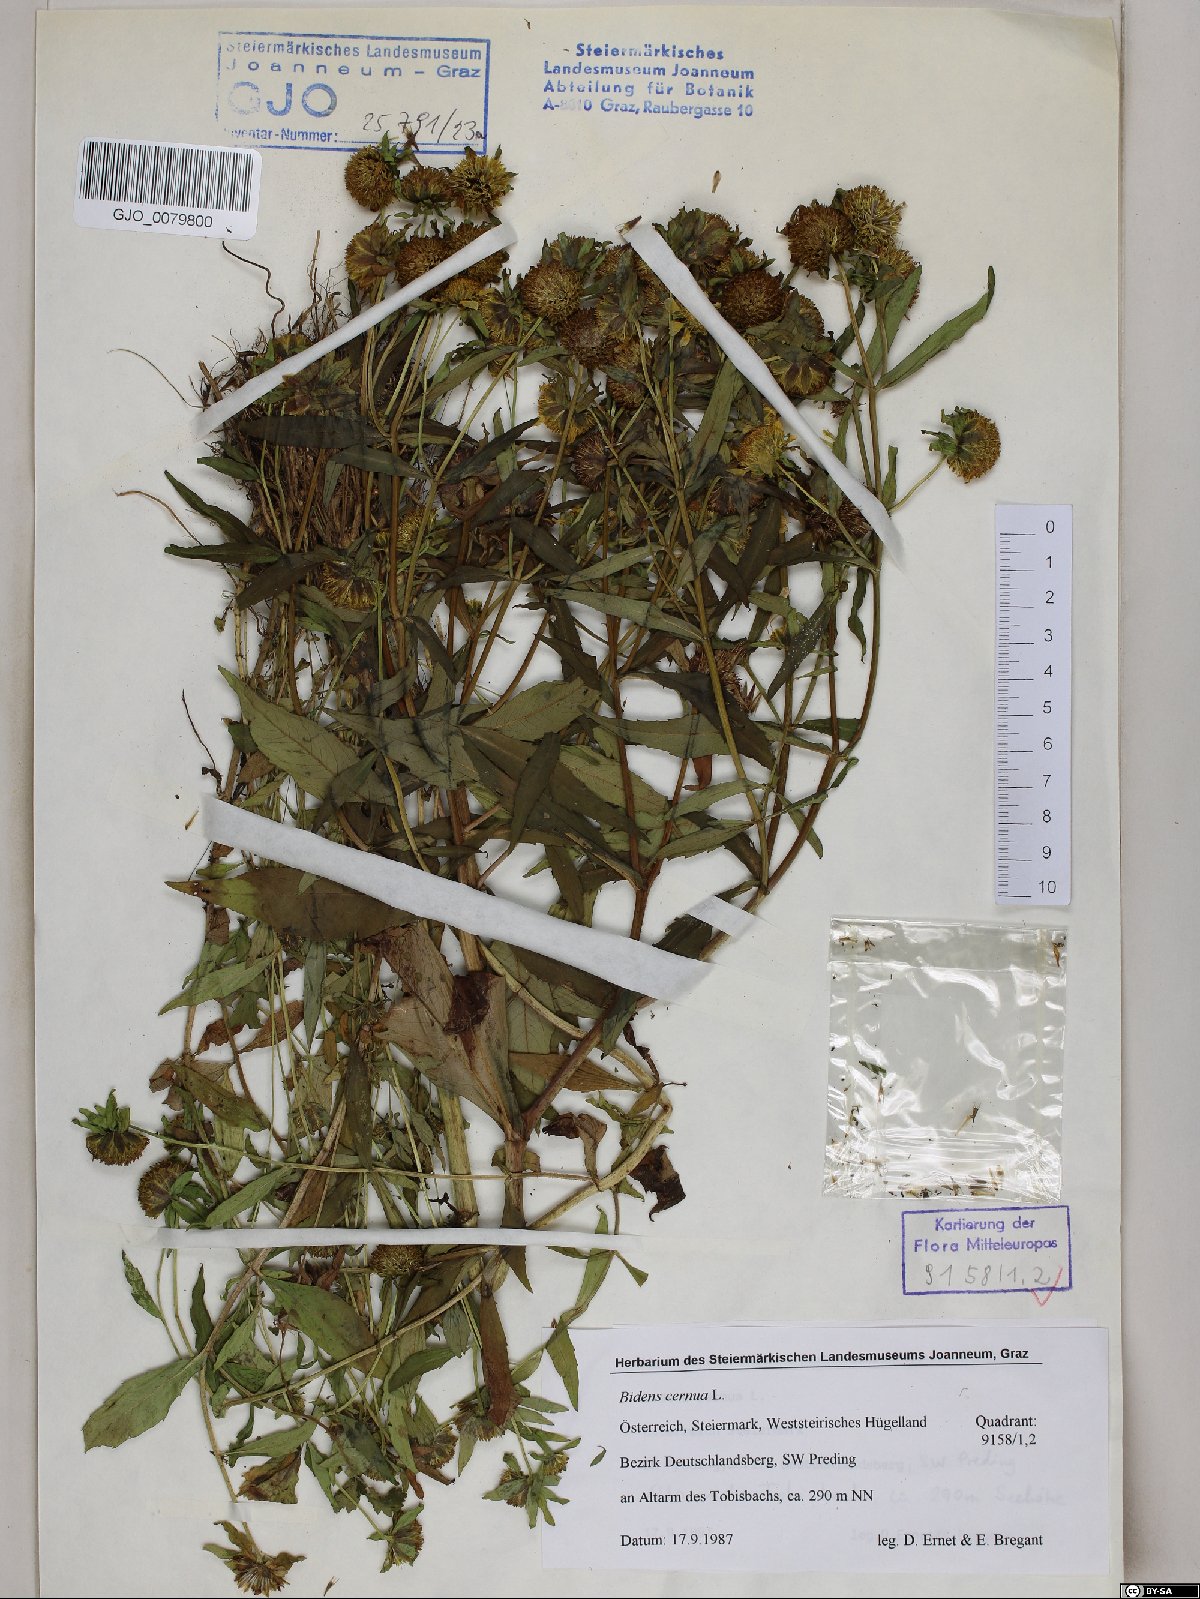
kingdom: Plantae
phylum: Tracheophyta
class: Magnoliopsida
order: Asterales
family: Asteraceae
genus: Bidens
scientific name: Bidens cernua
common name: Nodding bur-marigold
